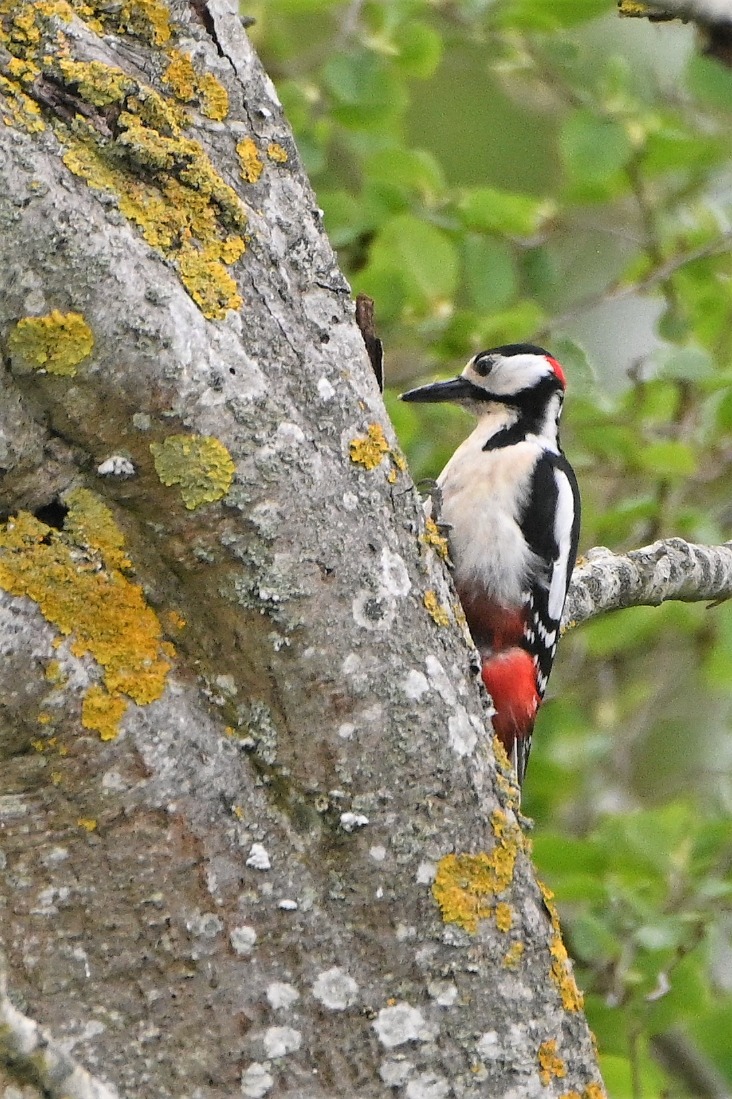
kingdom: Animalia
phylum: Chordata
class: Aves
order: Piciformes
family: Picidae
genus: Dendrocopos
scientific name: Dendrocopos major
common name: Stor flagspætte
